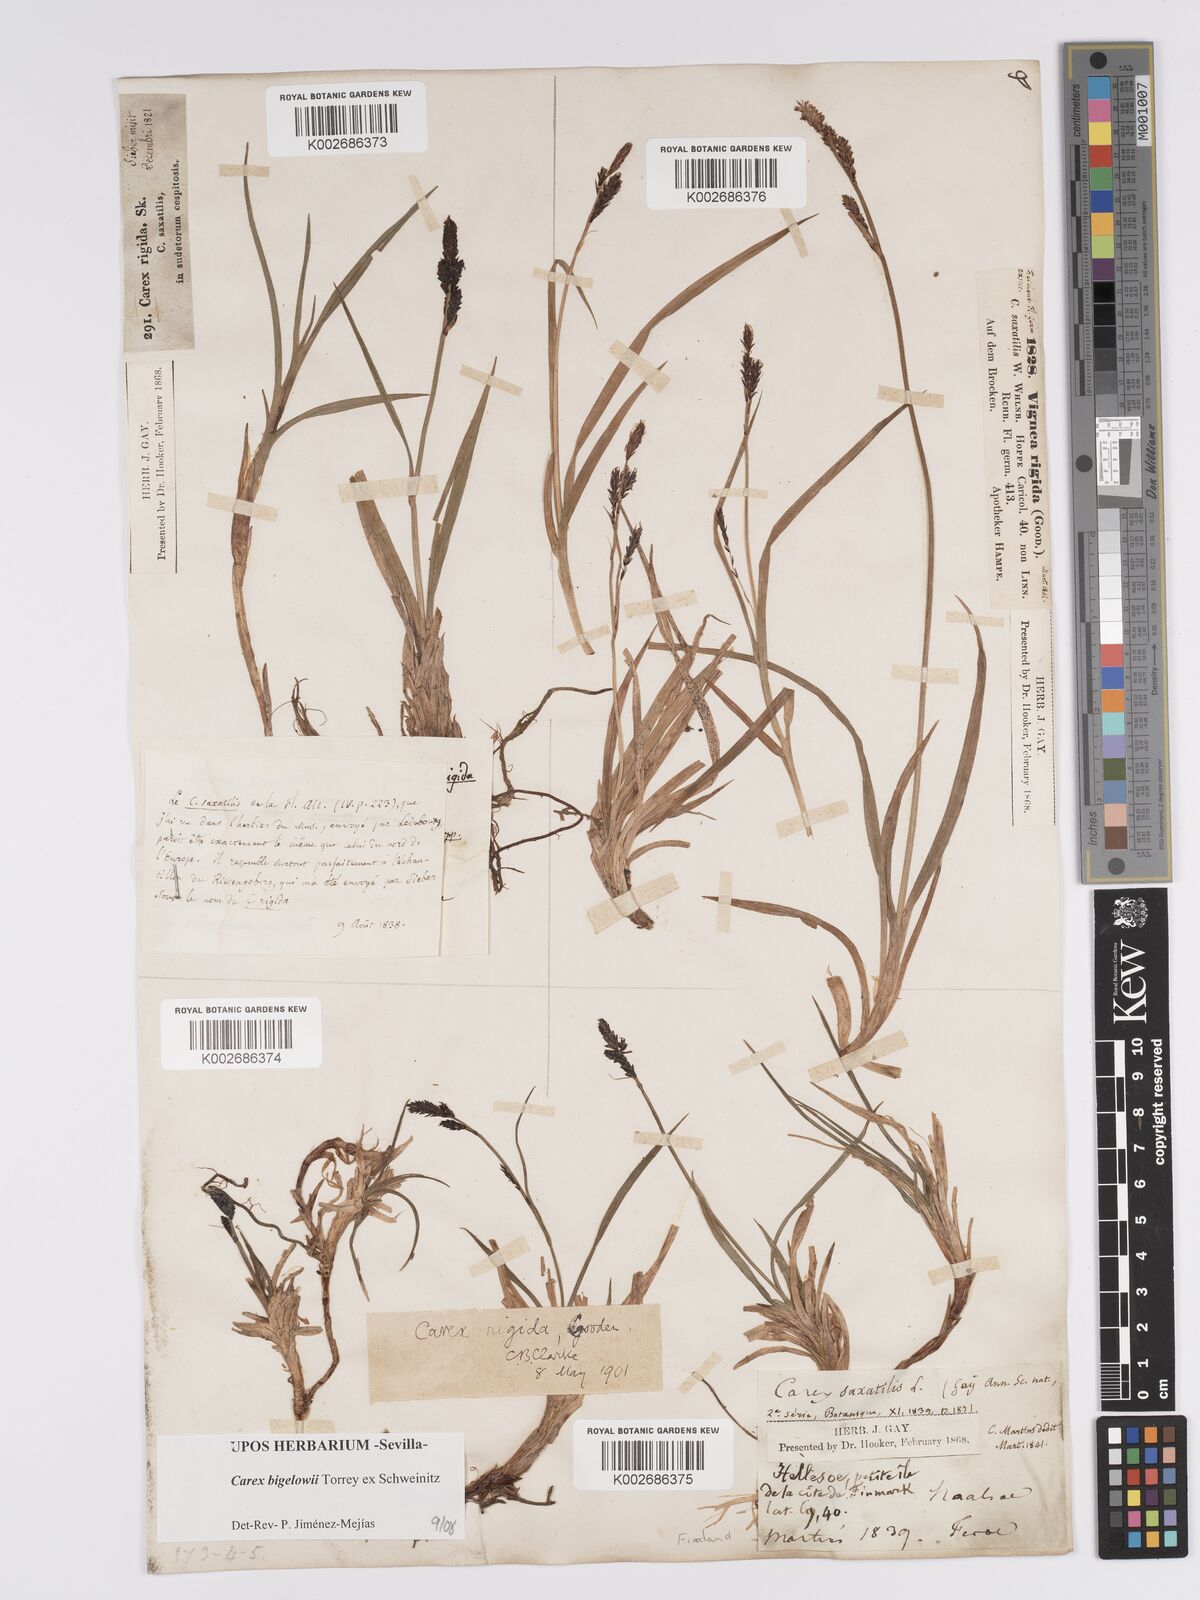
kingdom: Plantae
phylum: Tracheophyta
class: Liliopsida
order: Poales
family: Cyperaceae
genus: Carex
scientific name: Carex bigelowii
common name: Stiff sedge
